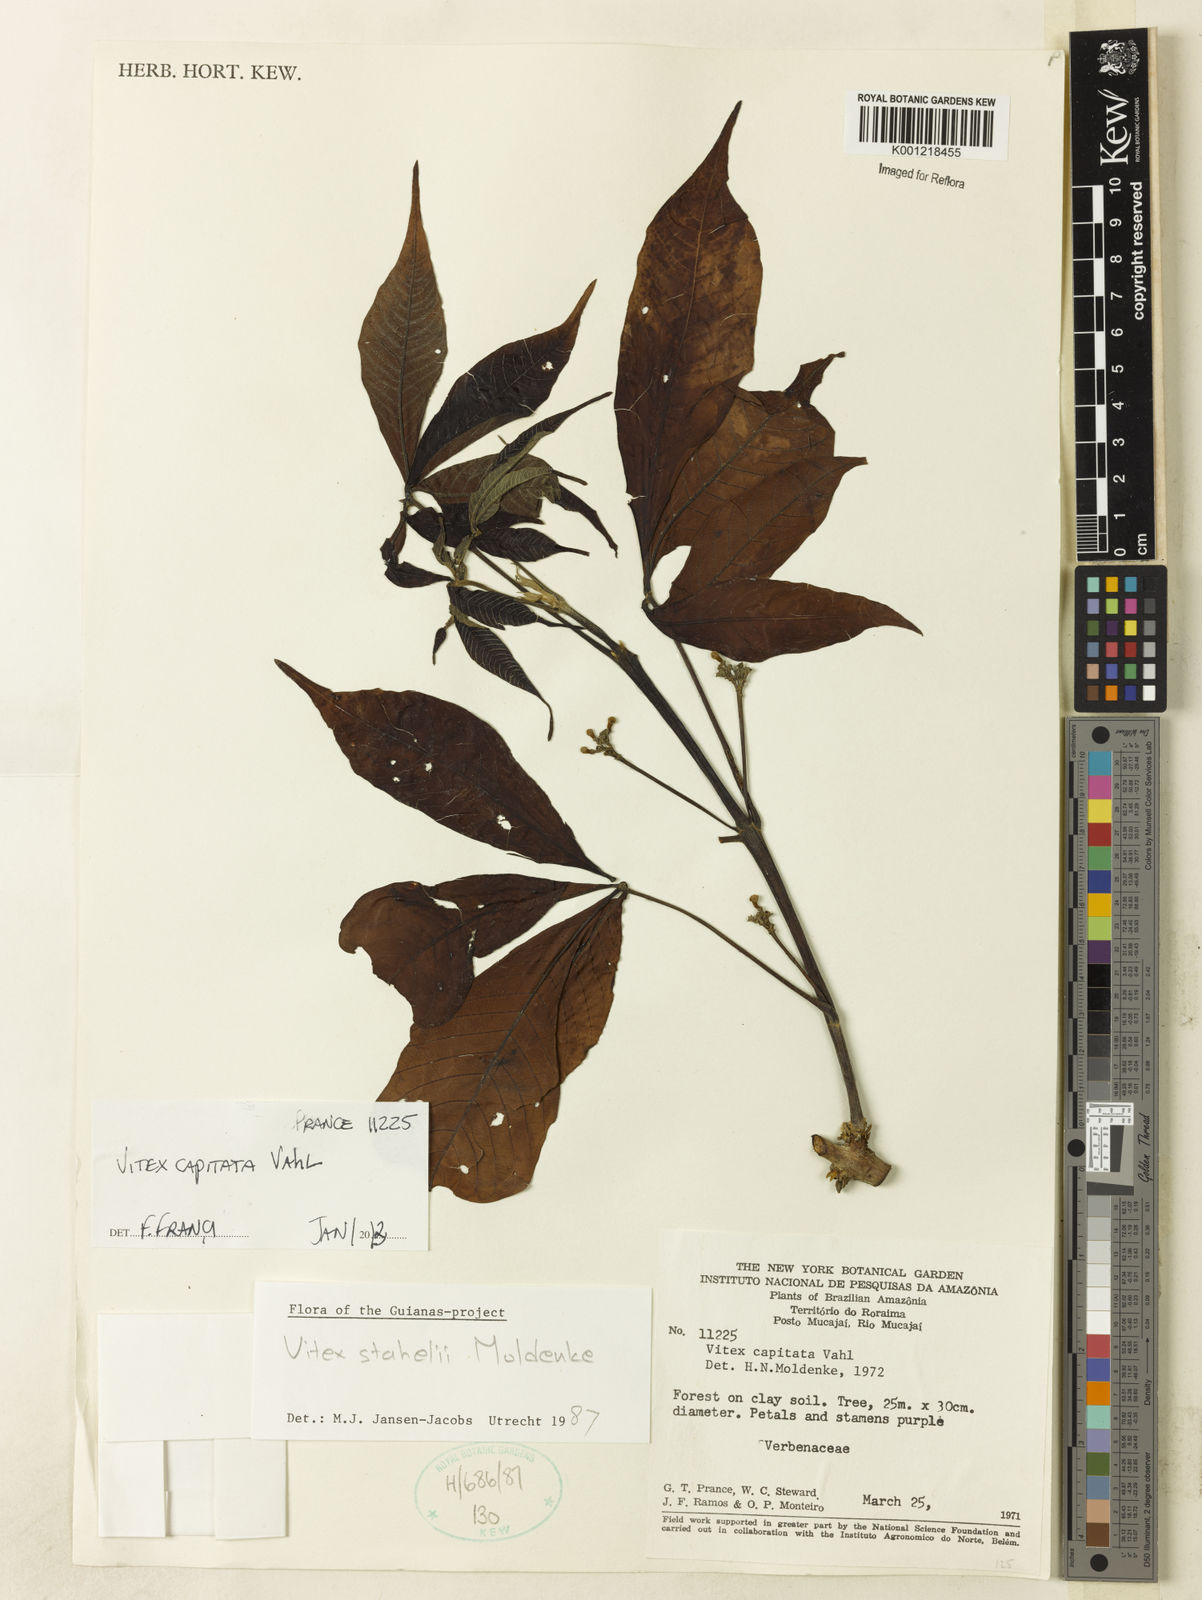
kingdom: Plantae
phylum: Tracheophyta
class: Magnoliopsida
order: Lamiales
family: Lamiaceae
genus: Vitex
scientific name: Vitex capitata
